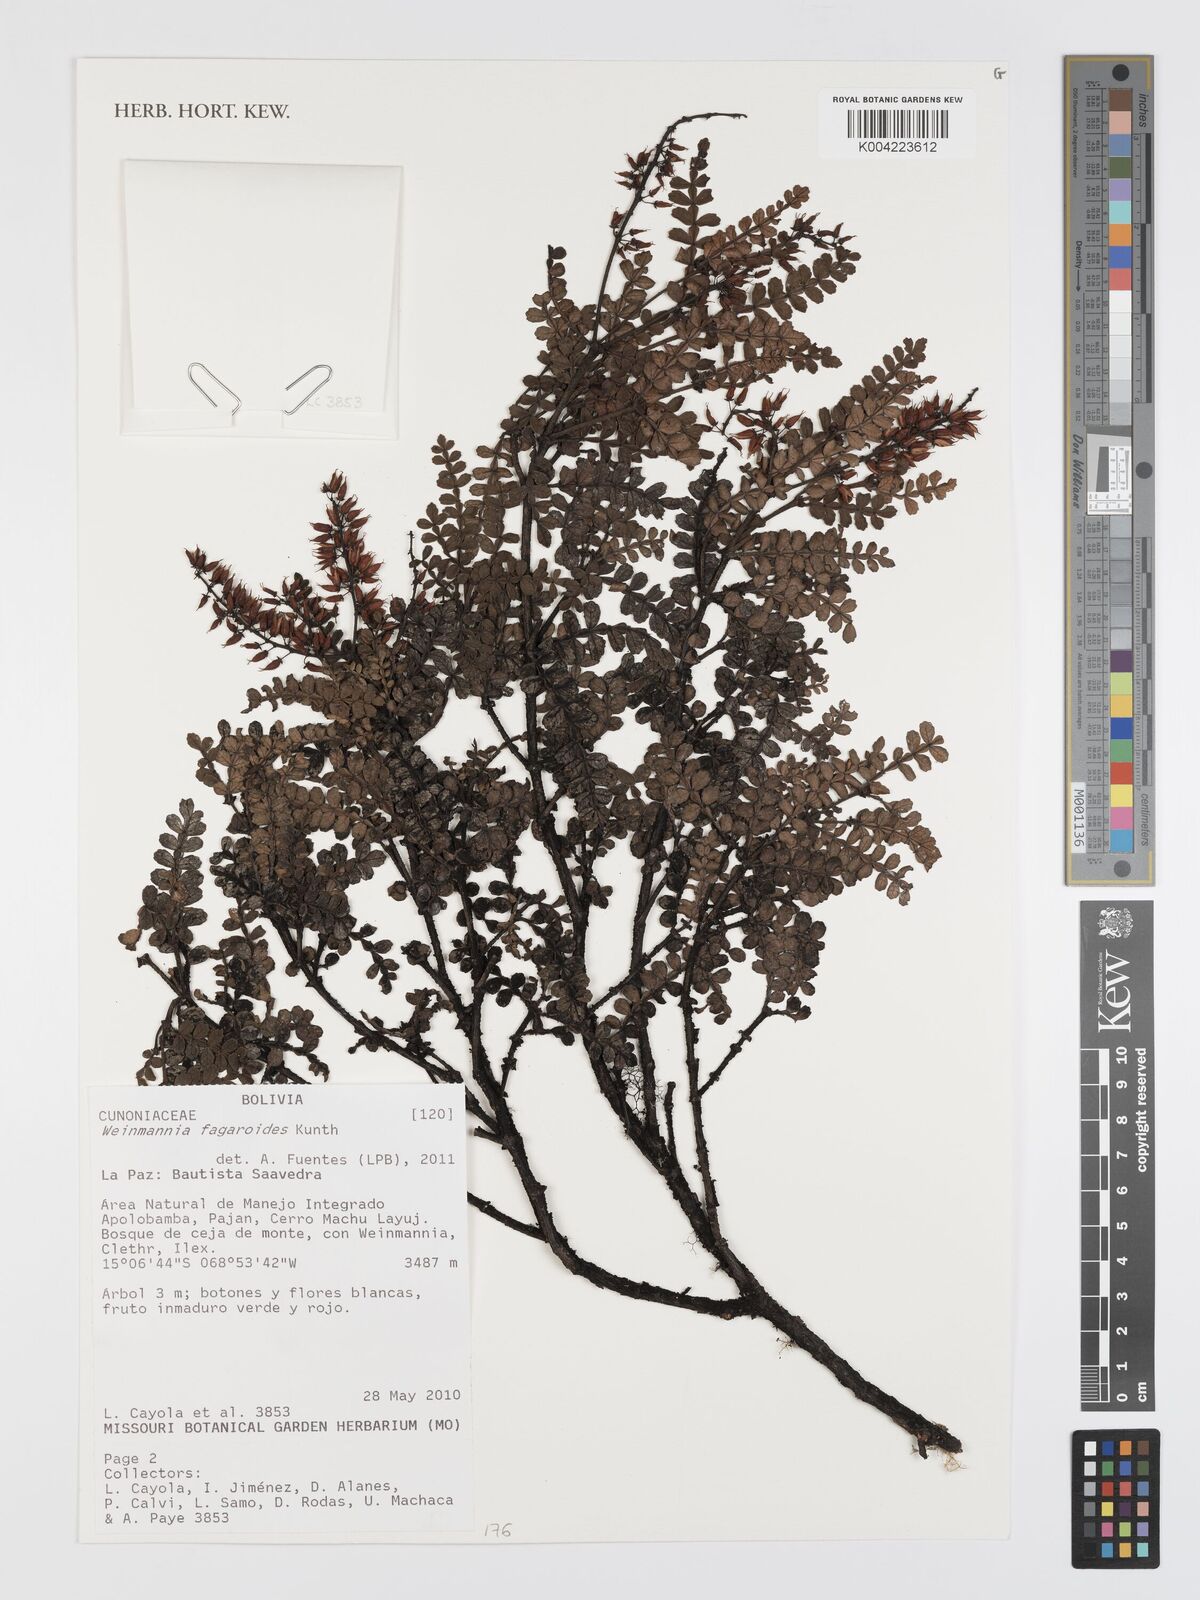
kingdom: Plantae
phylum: Tracheophyta
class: Magnoliopsida
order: Oxalidales
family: Cunoniaceae
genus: Weinmannia
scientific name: Weinmannia fagaroides
